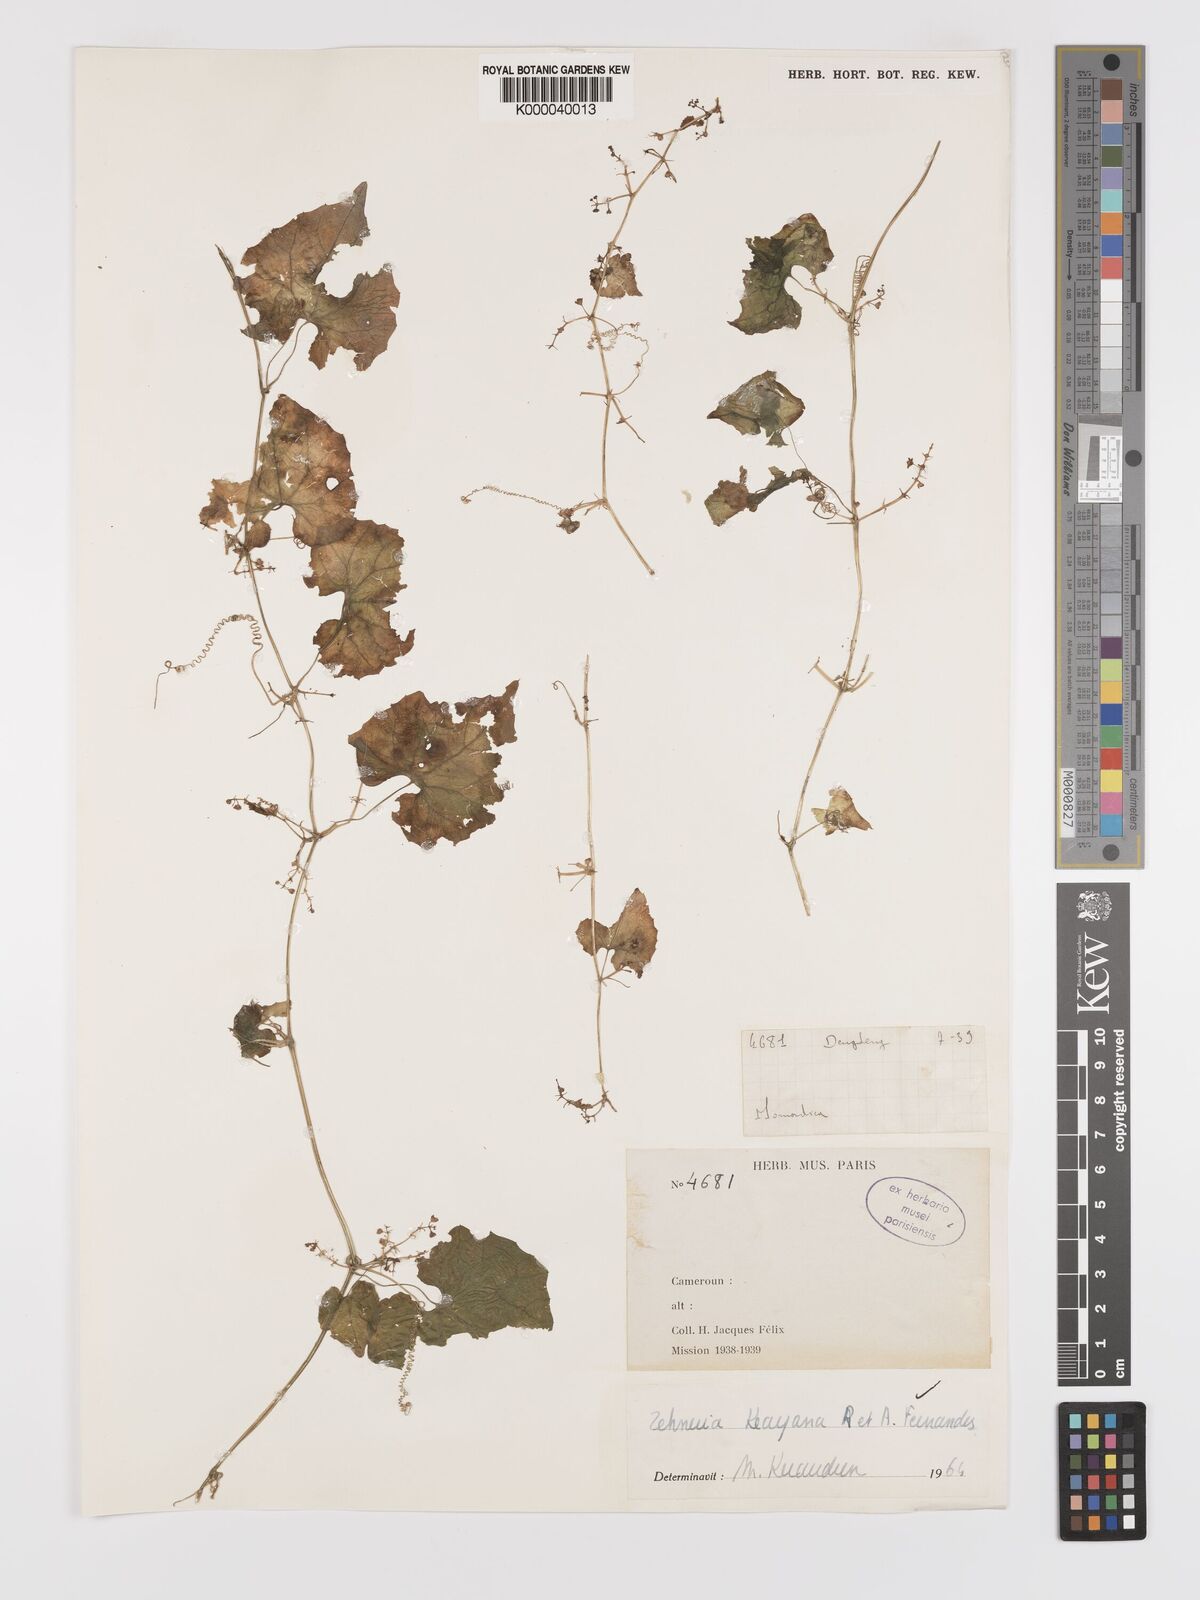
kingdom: Plantae
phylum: Tracheophyta
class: Magnoliopsida
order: Cucurbitales
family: Cucurbitaceae
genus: Zehneria
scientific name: Zehneria keayana
